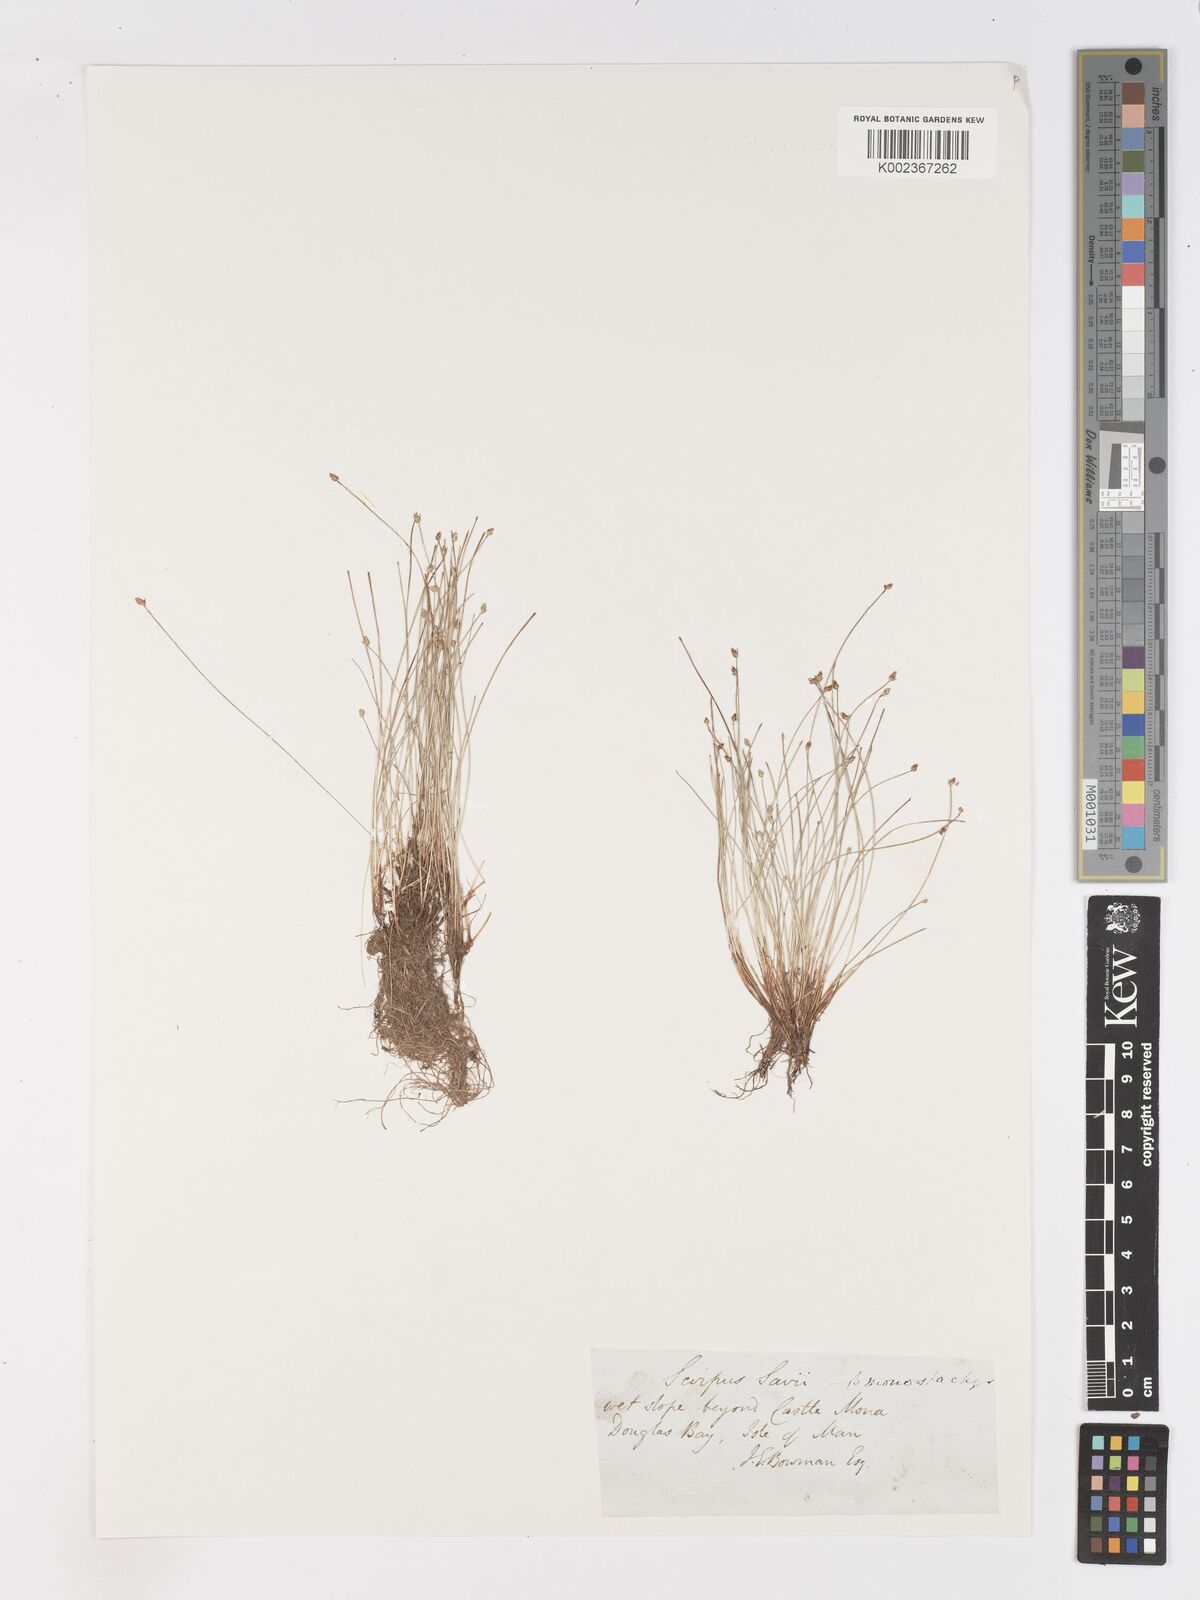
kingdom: Plantae
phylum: Tracheophyta
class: Liliopsida
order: Poales
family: Cyperaceae
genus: Isolepis
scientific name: Isolepis cernua
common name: Slender club-rush
